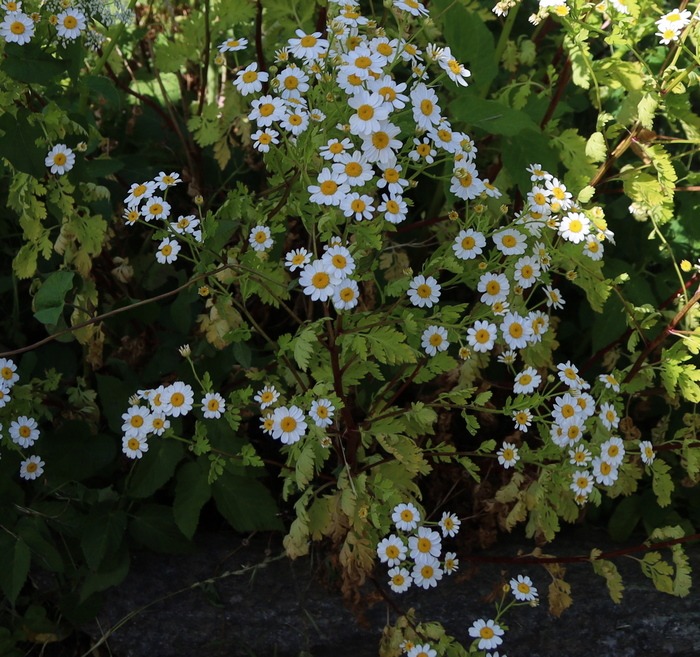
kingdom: Plantae
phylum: Tracheophyta
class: Magnoliopsida
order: Asterales
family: Asteraceae
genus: Tanacetum
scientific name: Tanacetum parthenium
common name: Matrem
